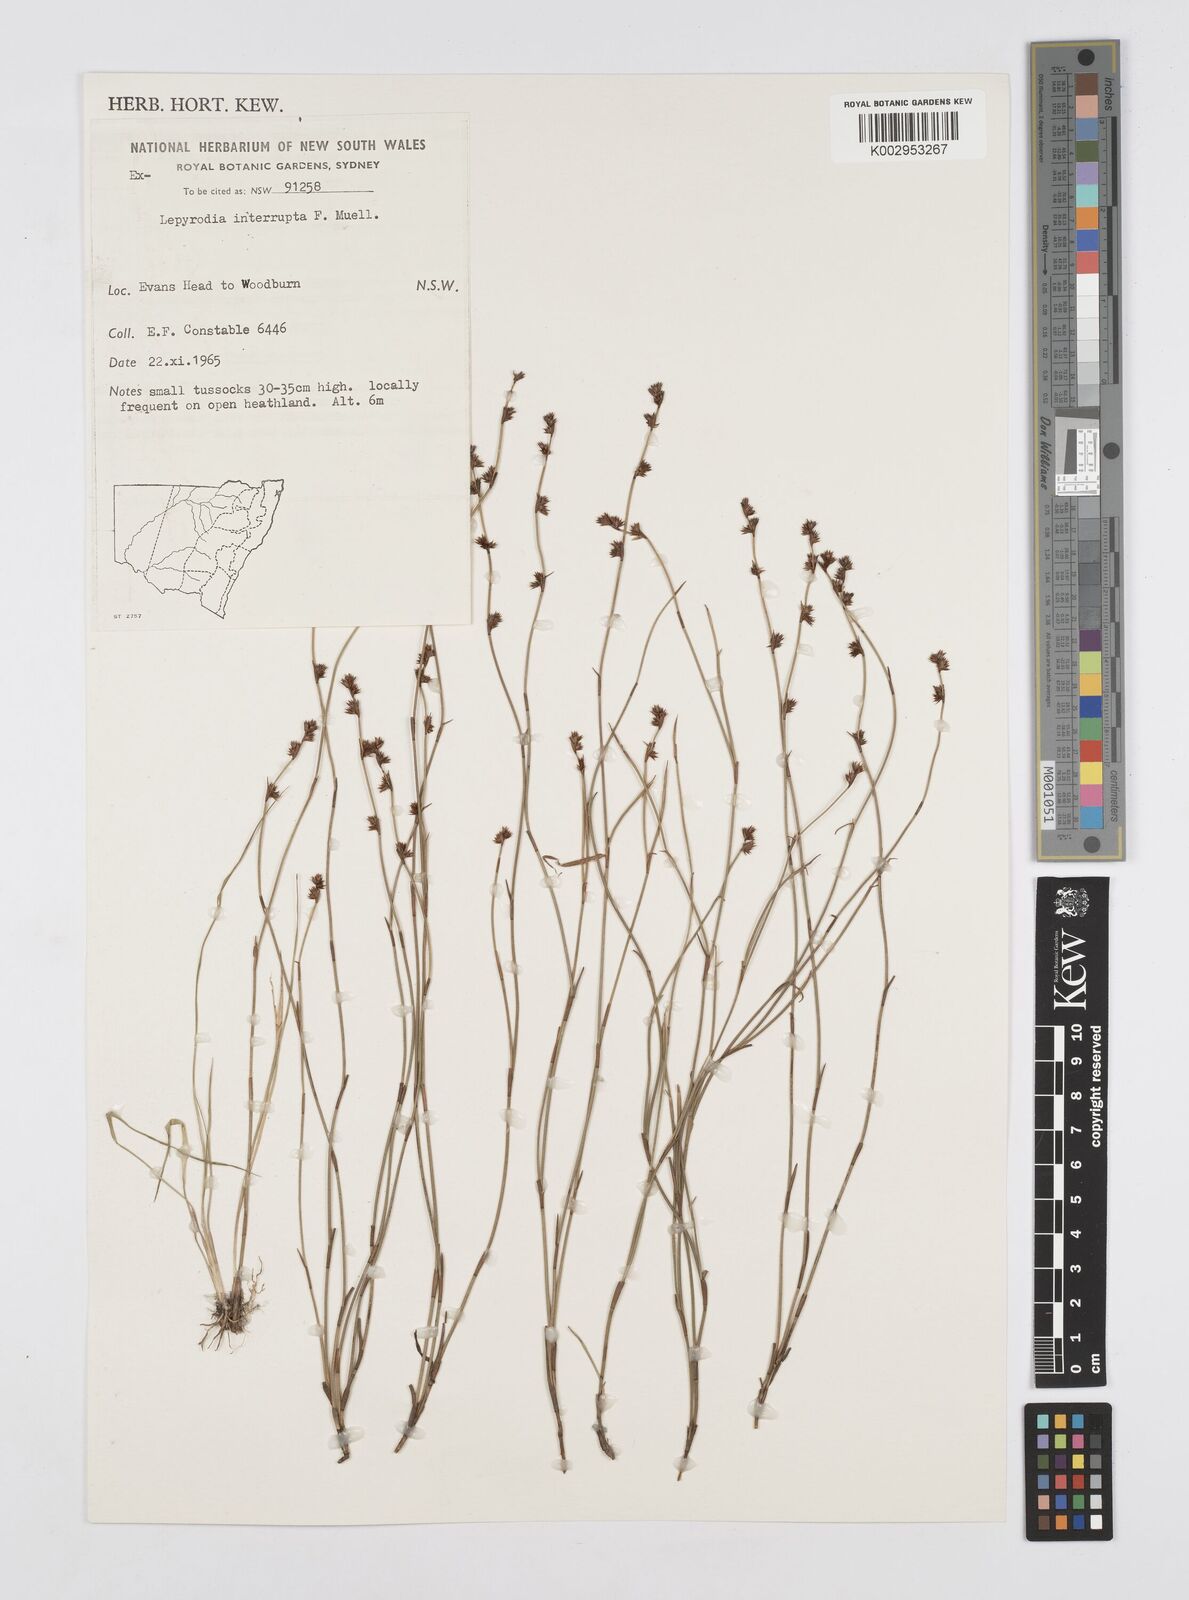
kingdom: Plantae
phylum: Tracheophyta
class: Liliopsida
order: Poales
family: Restionaceae
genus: Sporadanthus
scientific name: Sporadanthus interruptus
